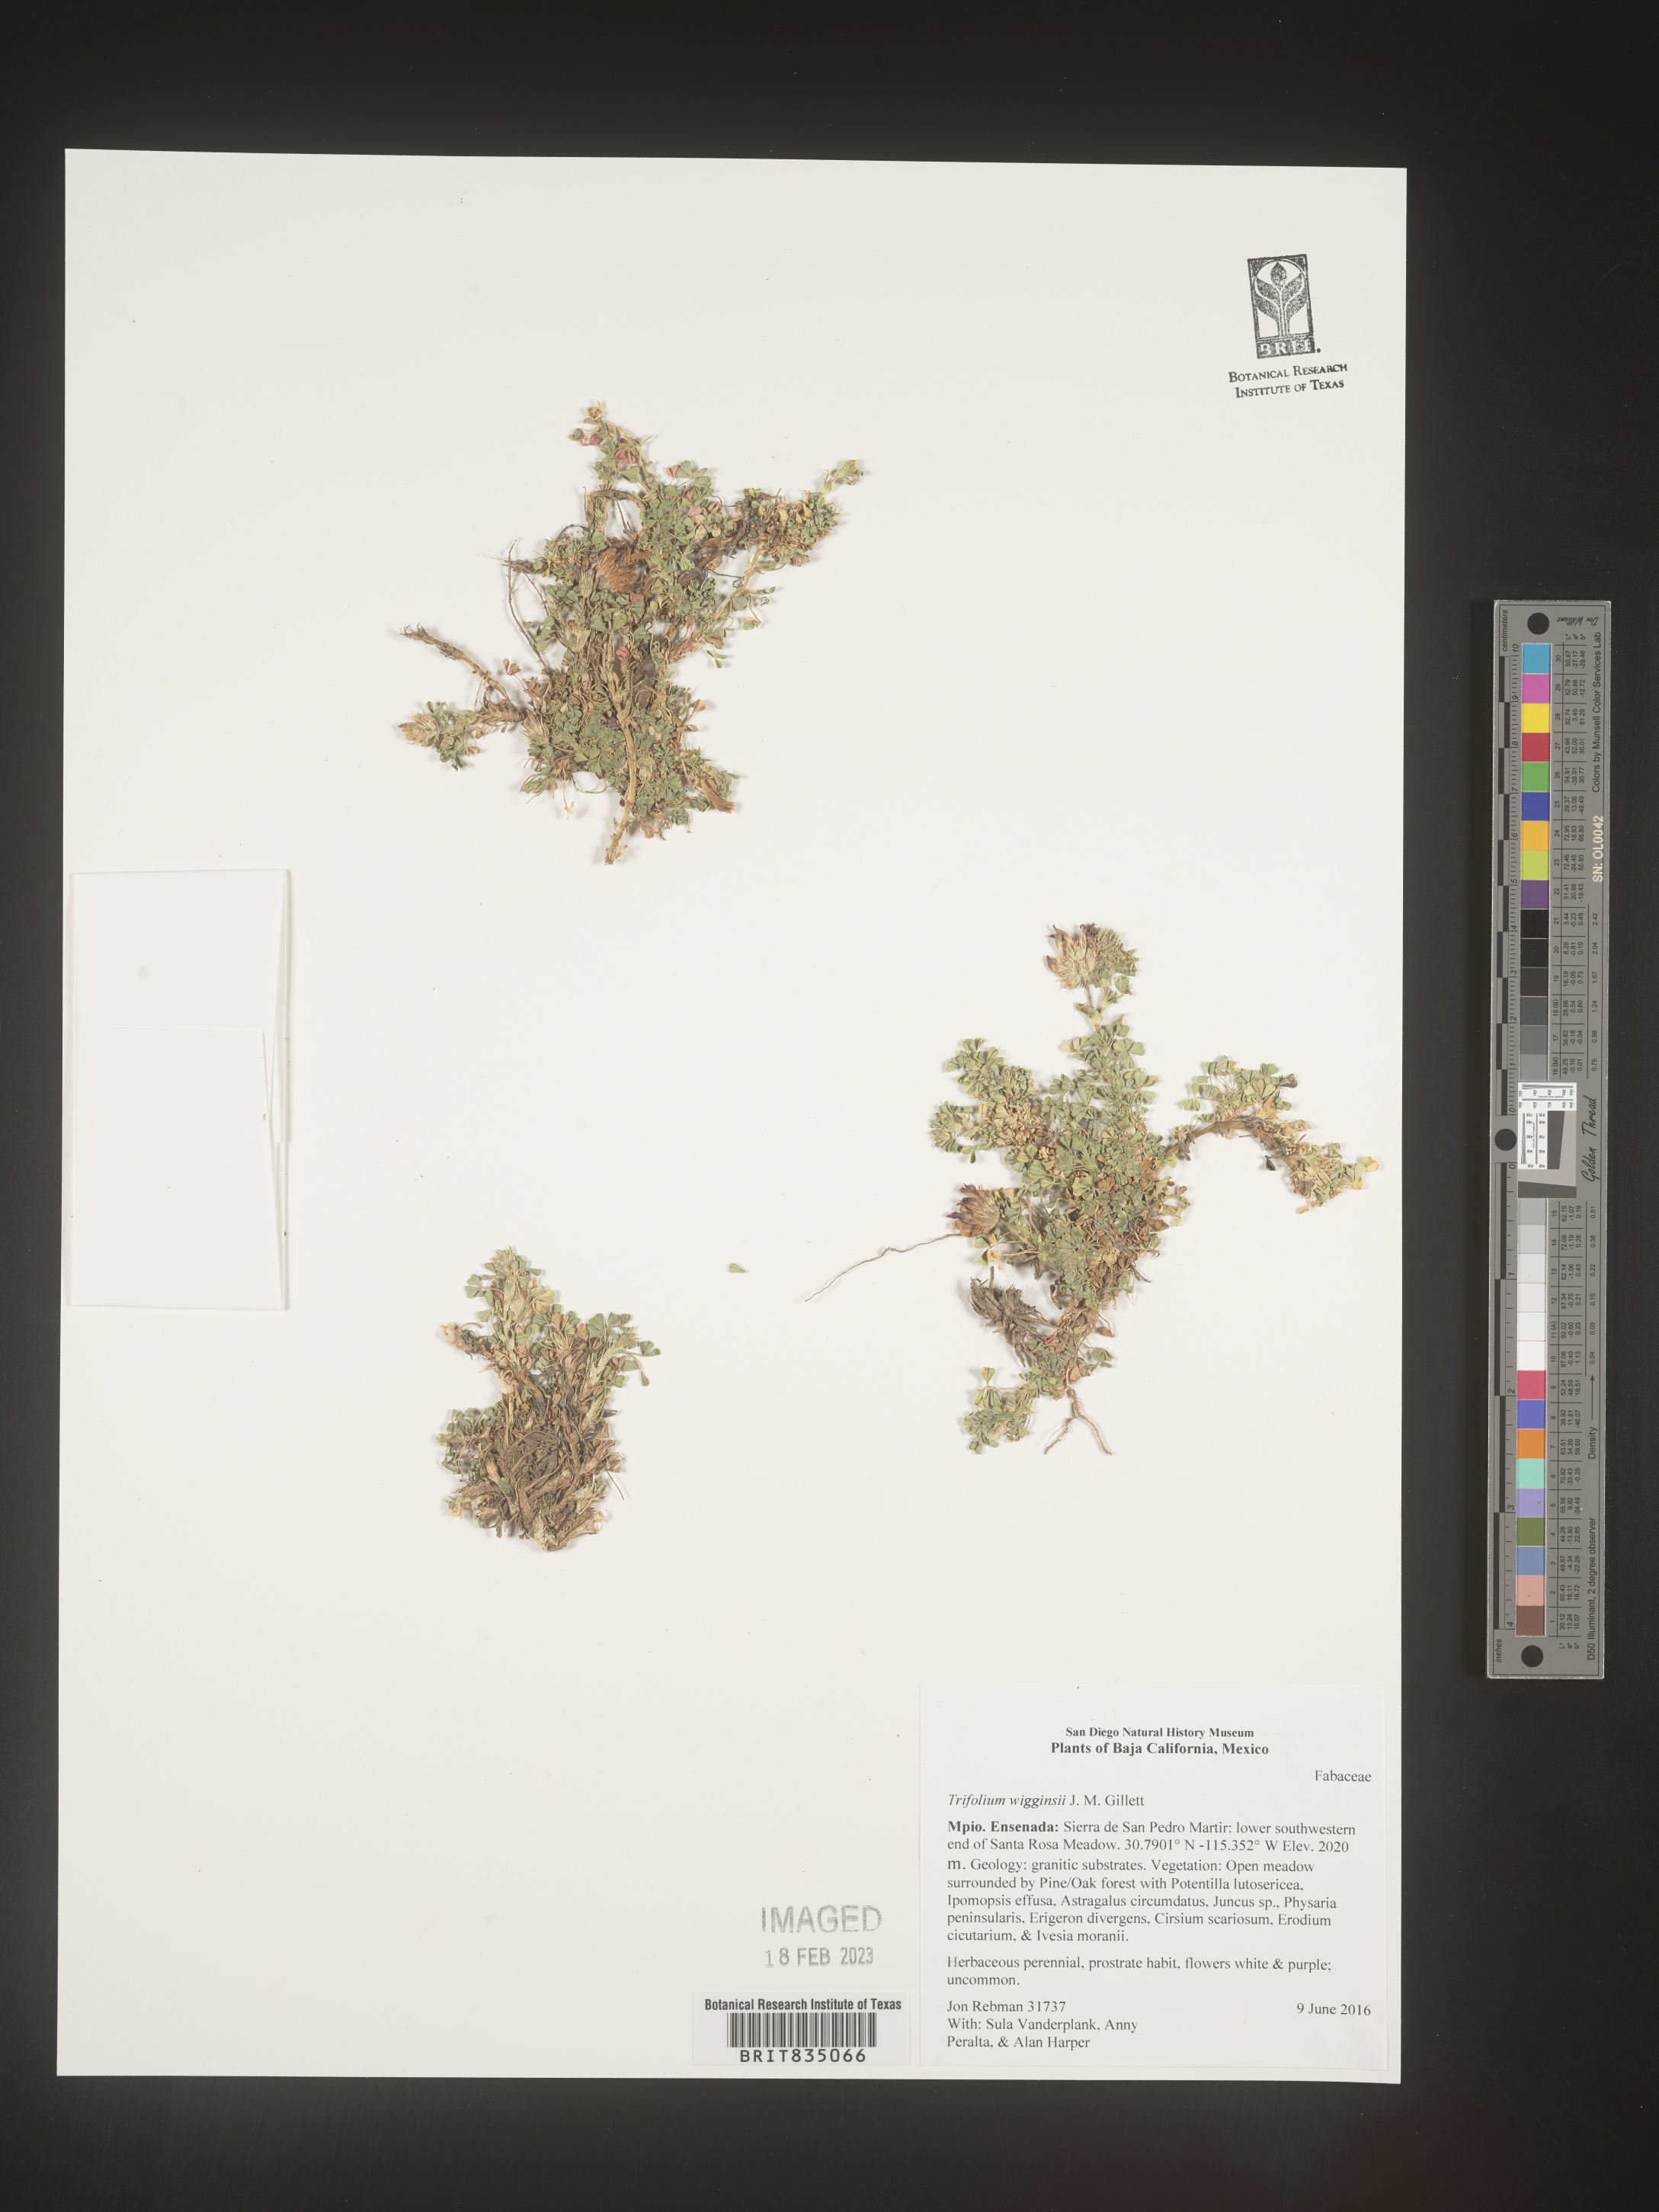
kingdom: Plantae
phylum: Tracheophyta
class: Magnoliopsida
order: Fabales
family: Fabaceae
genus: Trifolium
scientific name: Trifolium
